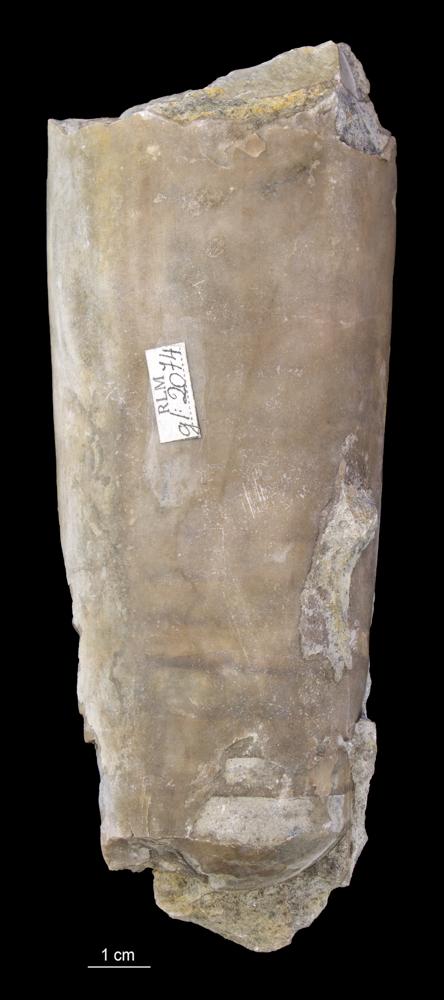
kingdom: Animalia
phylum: Mollusca
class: Cephalopoda
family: Endoceratidae
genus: Endoceras
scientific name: Endoceras
